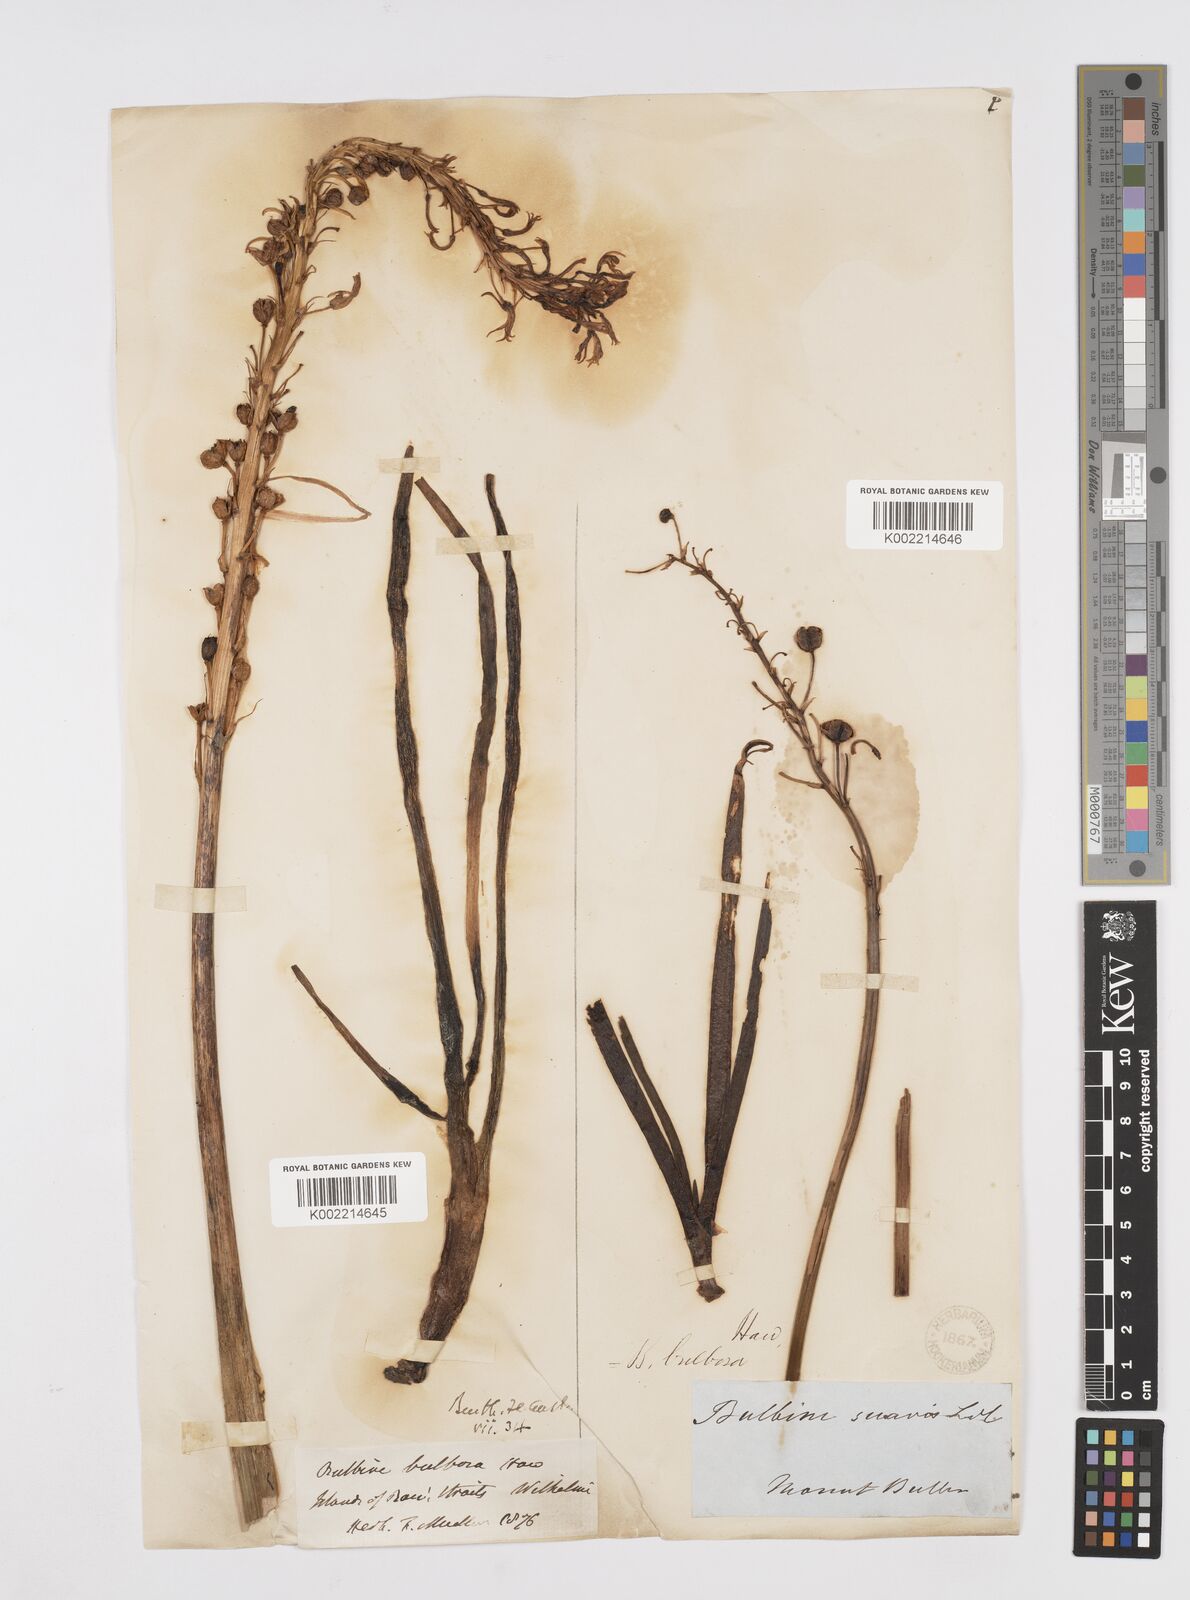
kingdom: Plantae
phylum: Tracheophyta
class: Liliopsida
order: Asparagales
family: Asphodelaceae
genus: Bulbine
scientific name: Bulbine bulbosa
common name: Golden-lily
